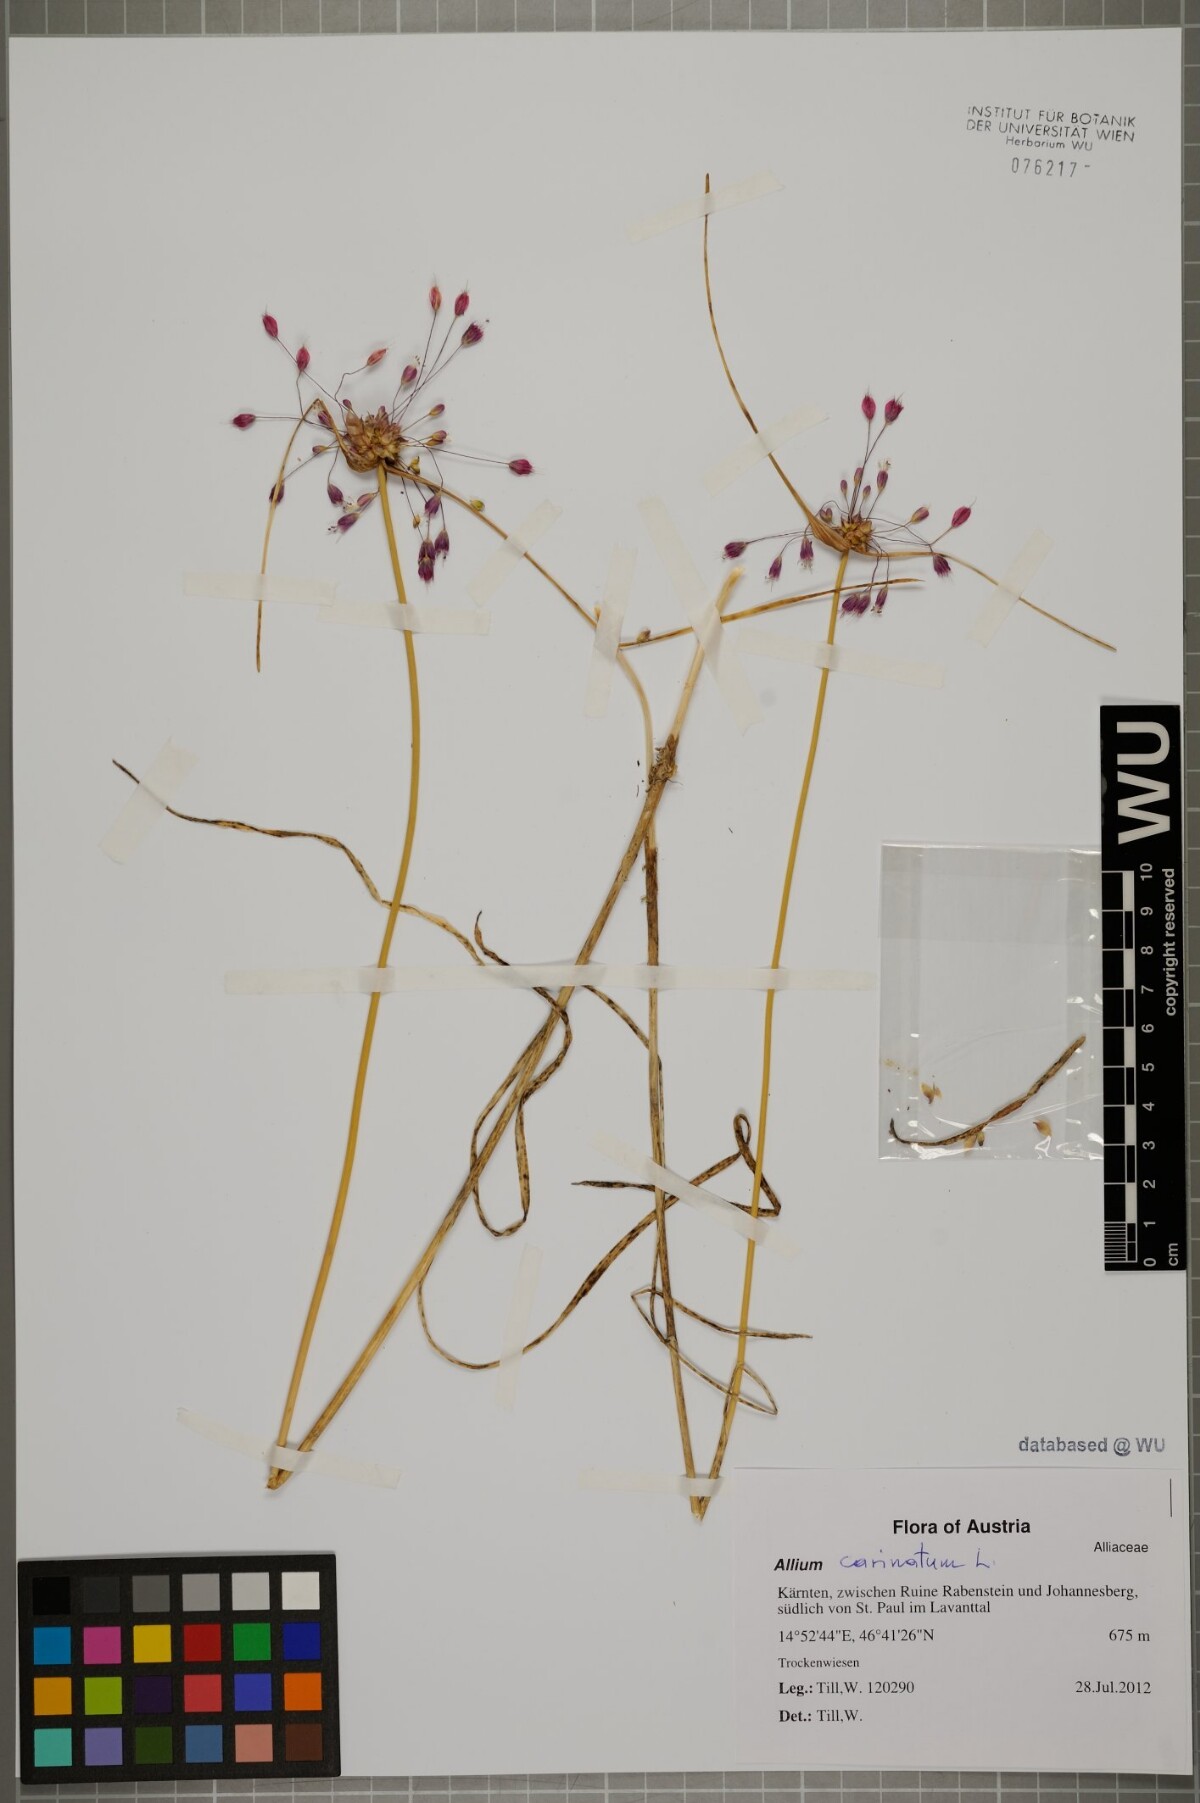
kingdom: Plantae
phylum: Tracheophyta
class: Liliopsida
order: Asparagales
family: Amaryllidaceae
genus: Allium
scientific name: Allium carinatum
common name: Keeled garlic
